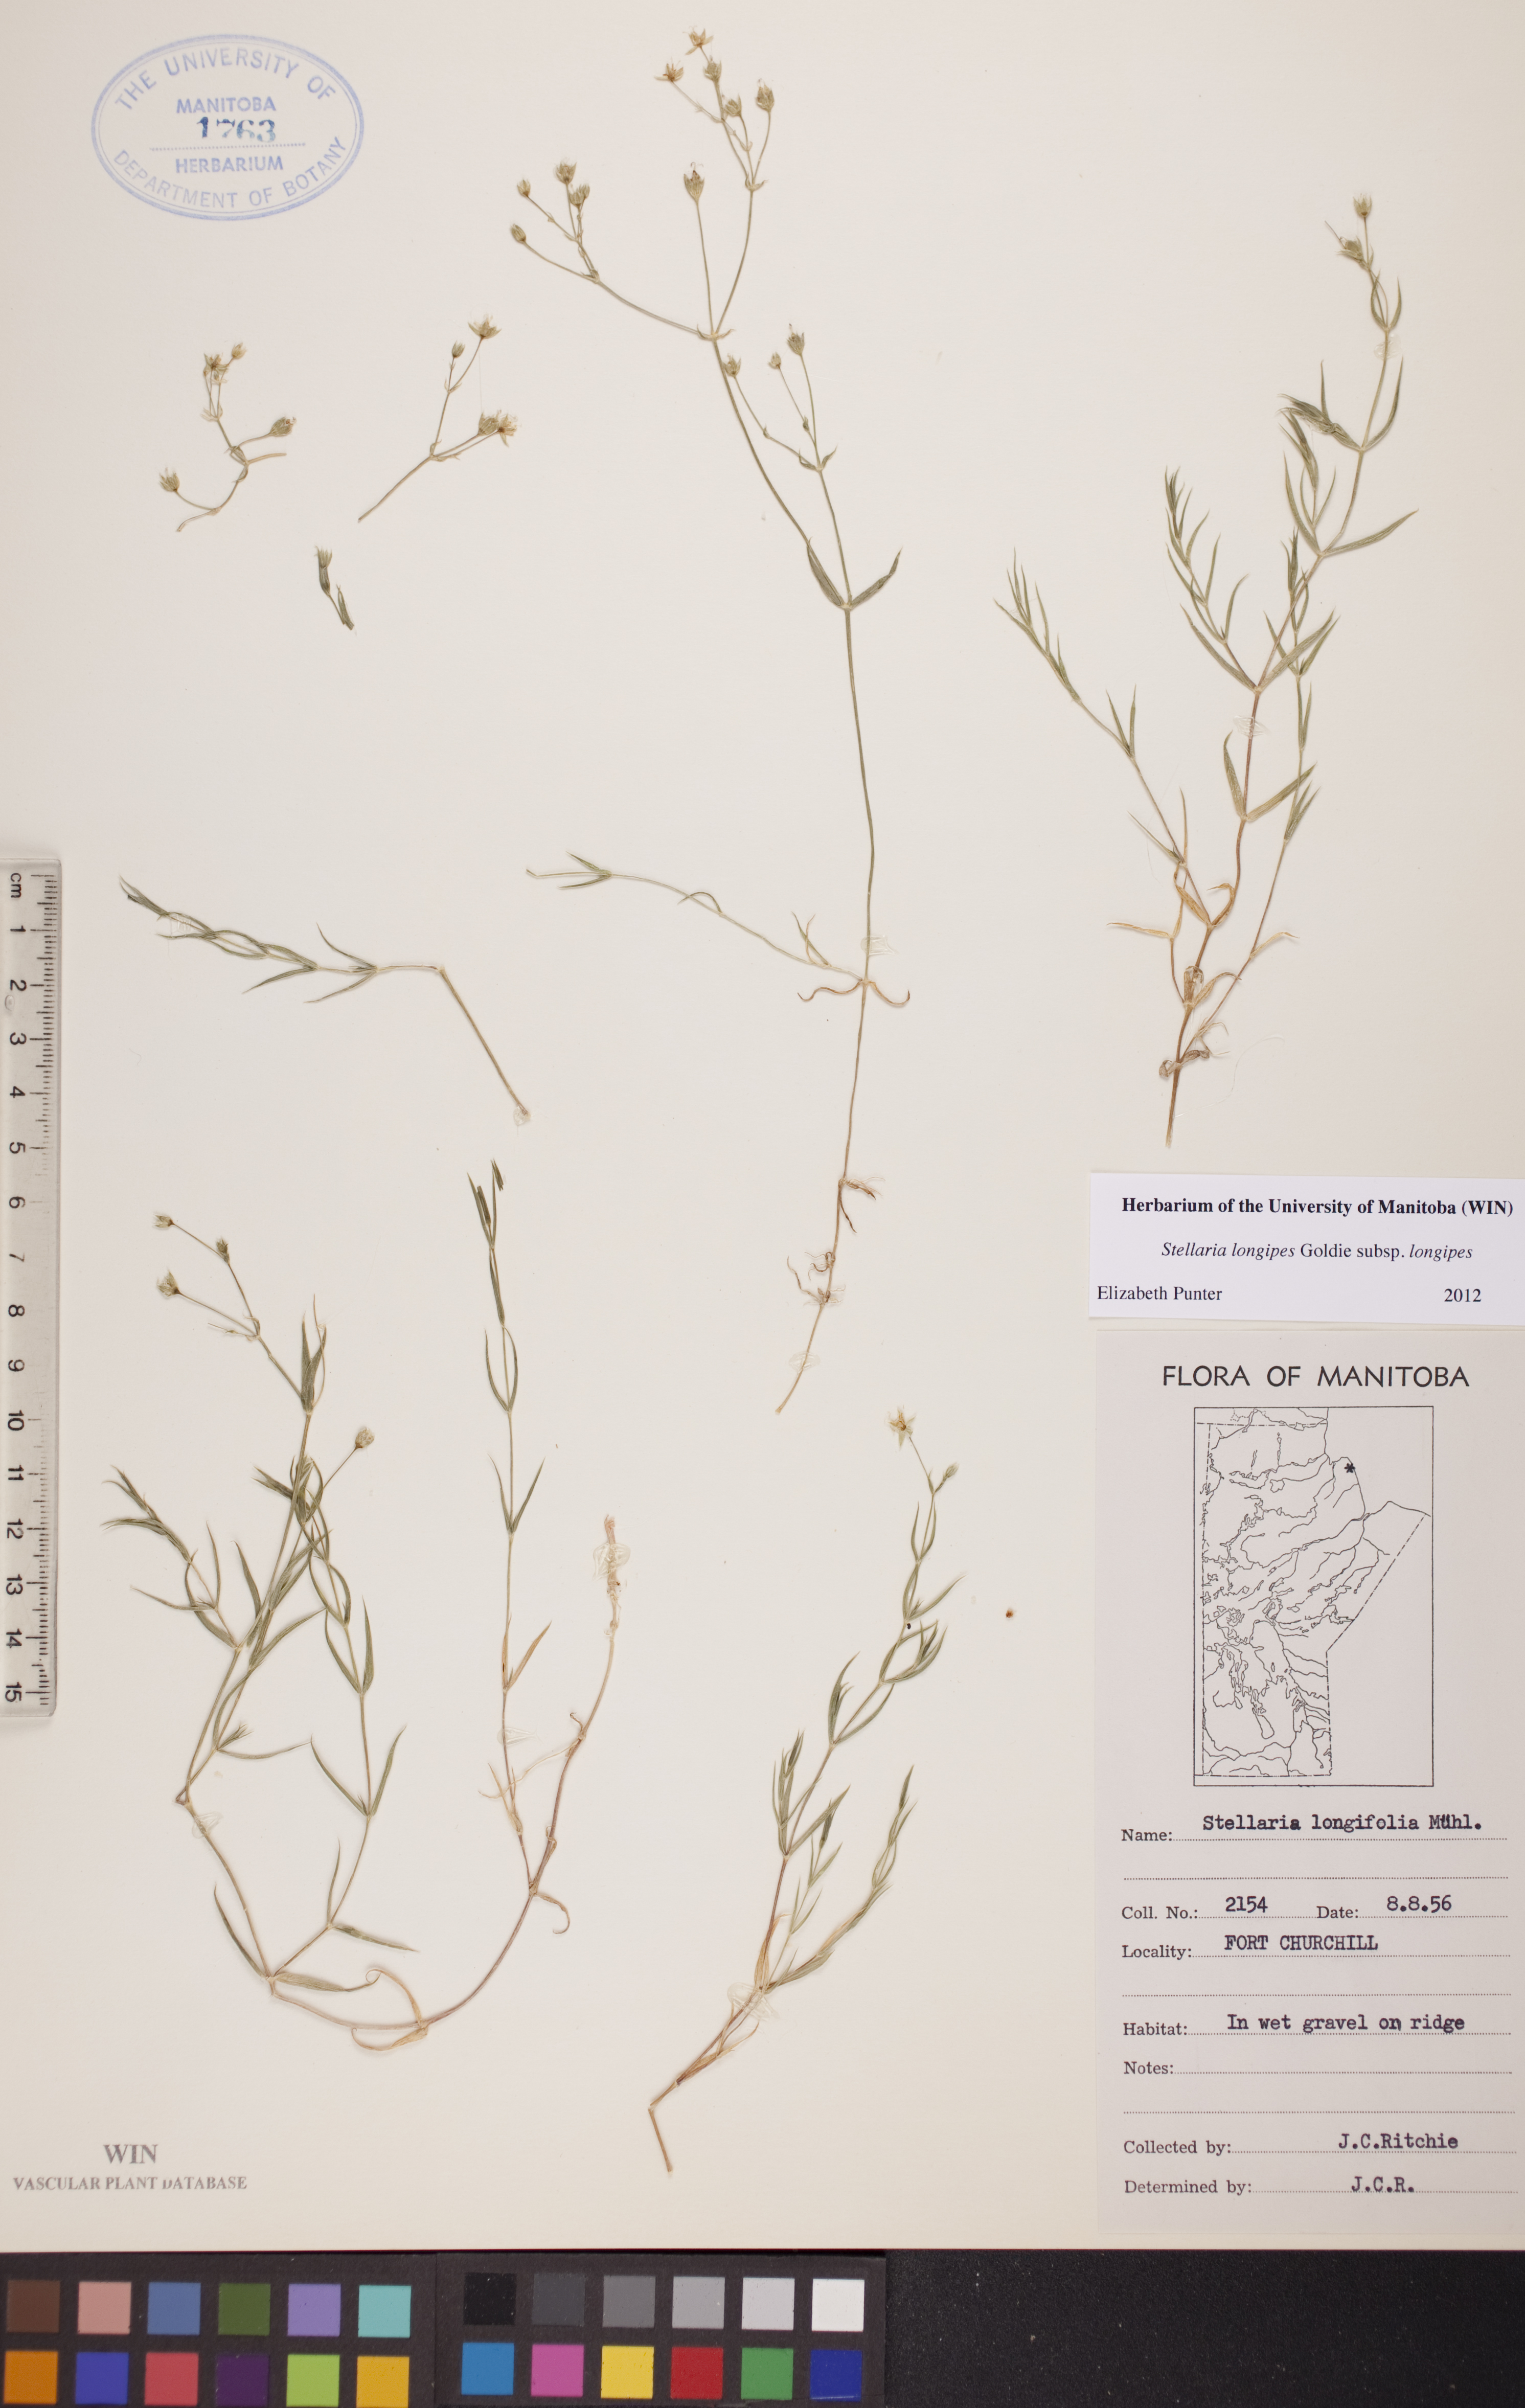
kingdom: Plantae
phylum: Tracheophyta
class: Magnoliopsida
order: Caryophyllales
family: Caryophyllaceae
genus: Stellaria
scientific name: Stellaria longipes
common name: Goldie's starwort
